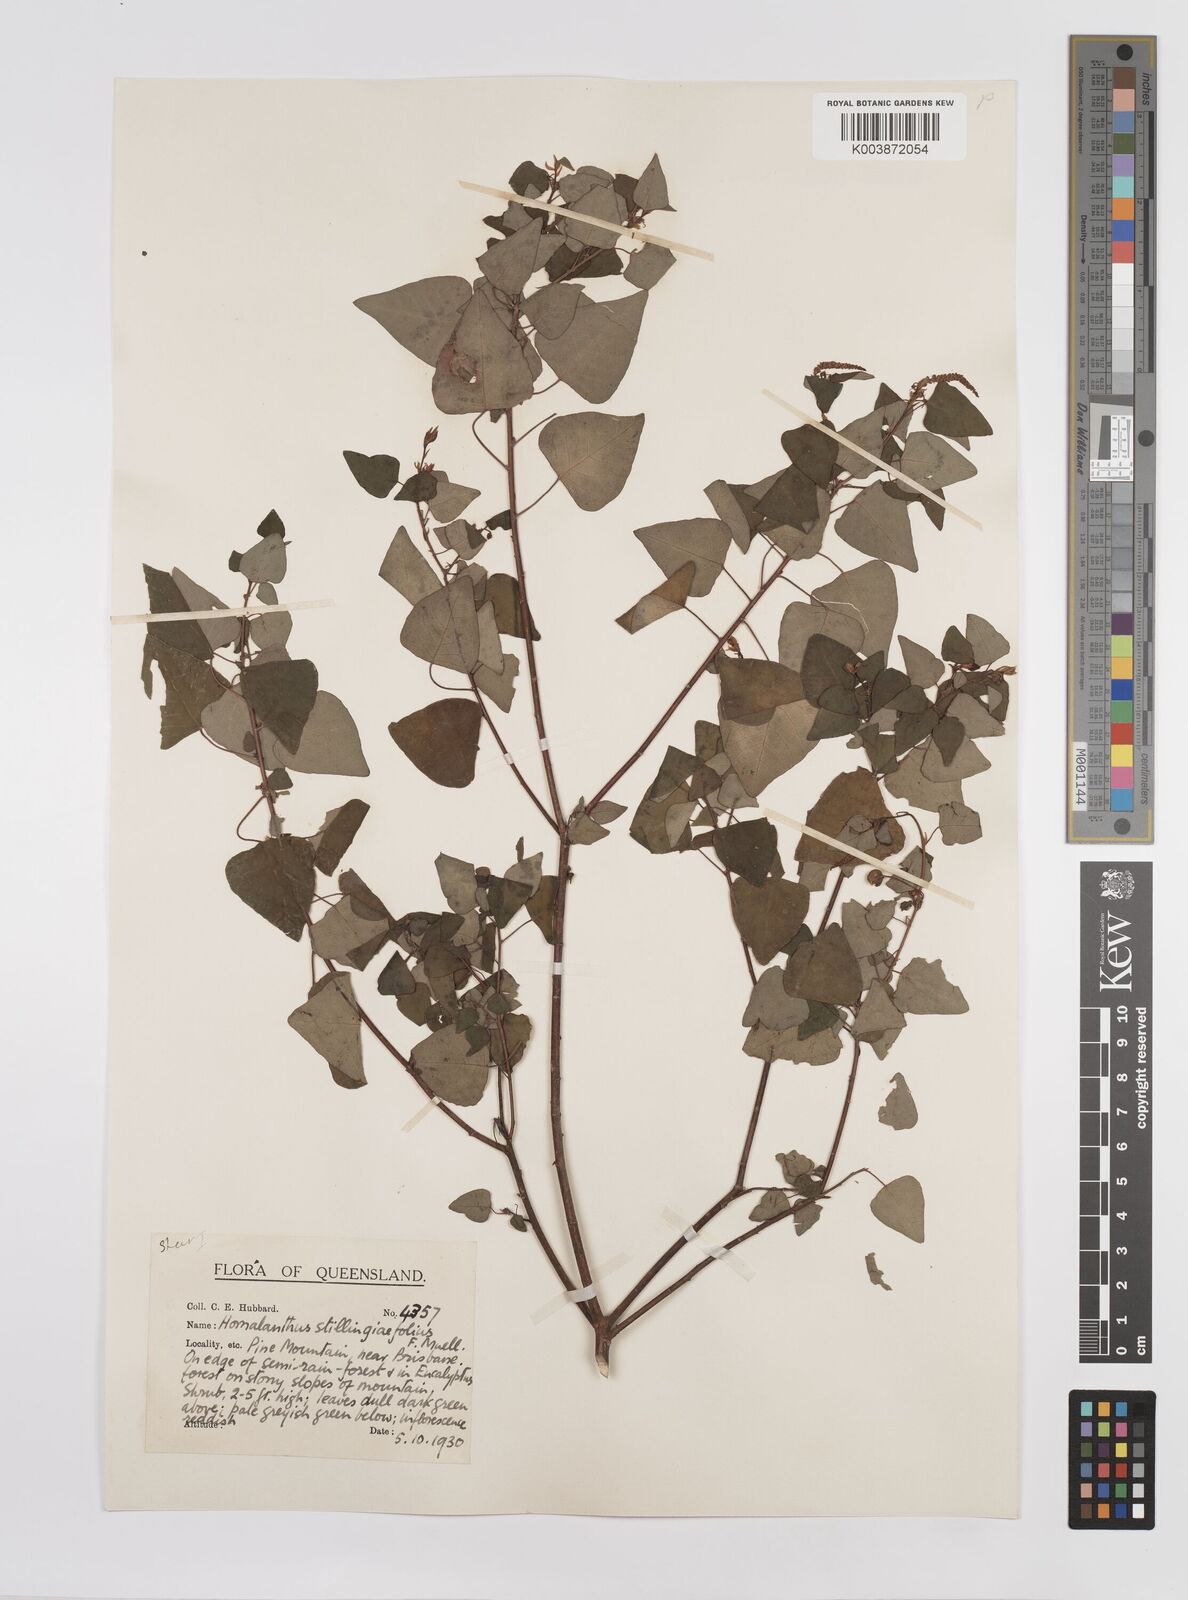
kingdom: Plantae
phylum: Tracheophyta
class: Magnoliopsida
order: Malpighiales
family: Euphorbiaceae
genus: Homalanthus
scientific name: Homalanthus stillingifolius
